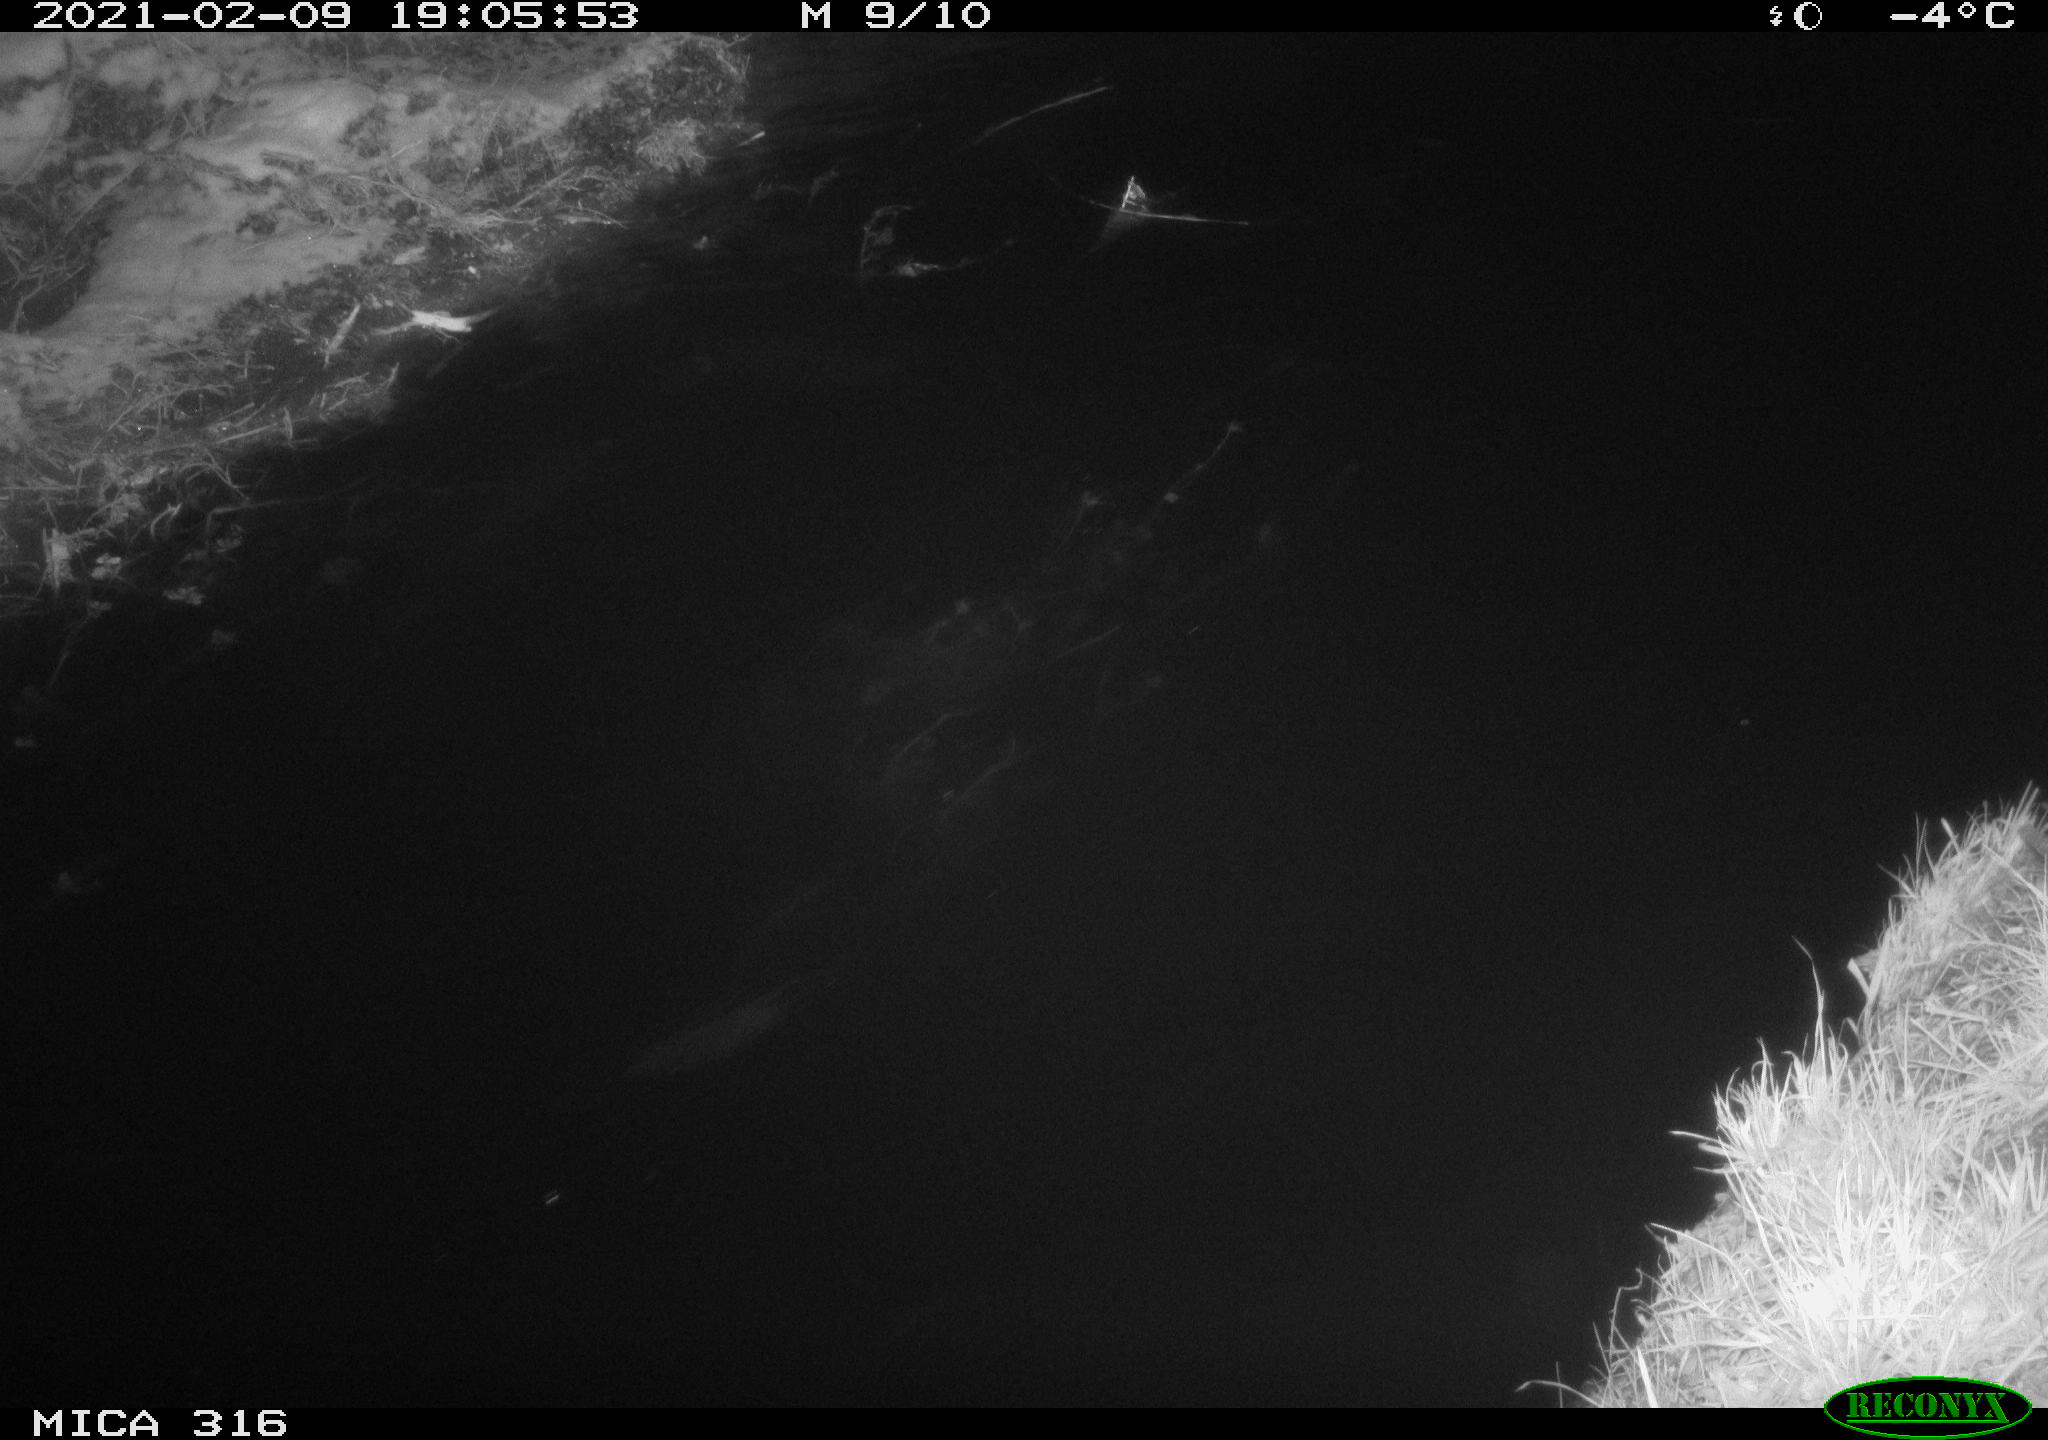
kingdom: Animalia
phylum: Chordata
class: Aves
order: Anseriformes
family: Anatidae
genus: Mareca
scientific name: Mareca strepera
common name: Gadwall
